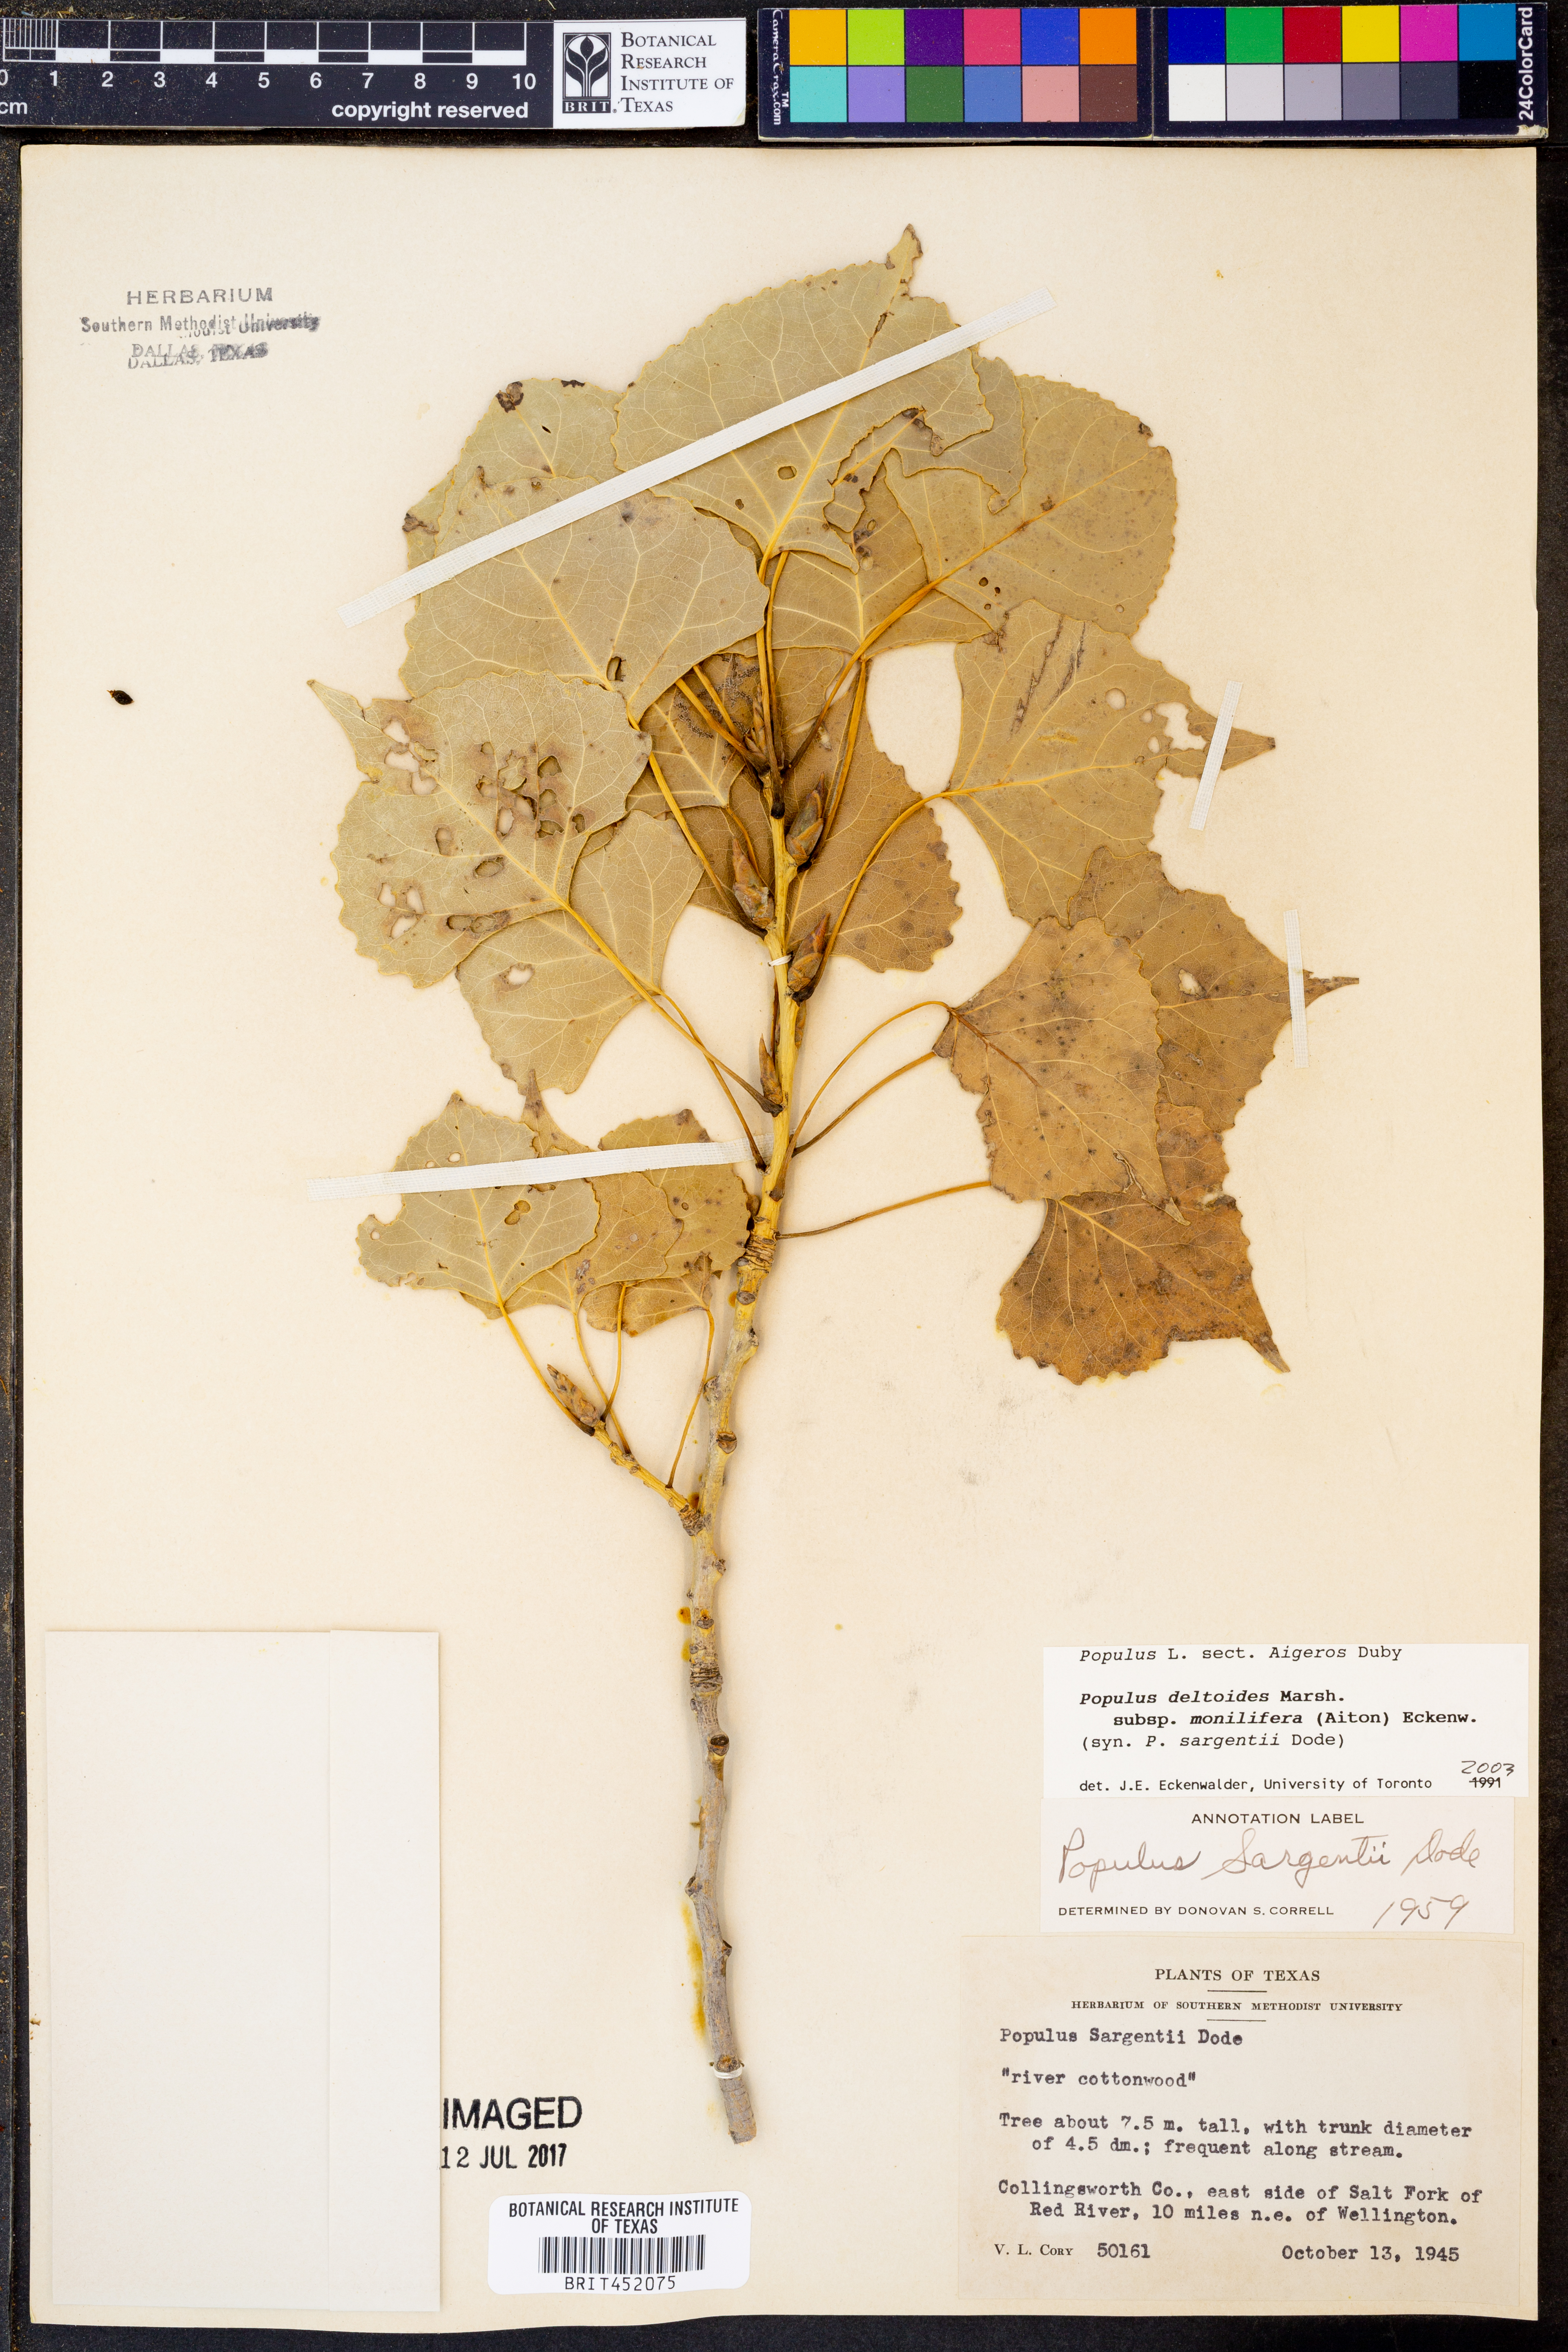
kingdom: Plantae
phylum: Tracheophyta
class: Magnoliopsida
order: Malpighiales
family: Salicaceae
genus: Populus
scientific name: Populus deltoides
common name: Eastern cottonwood
